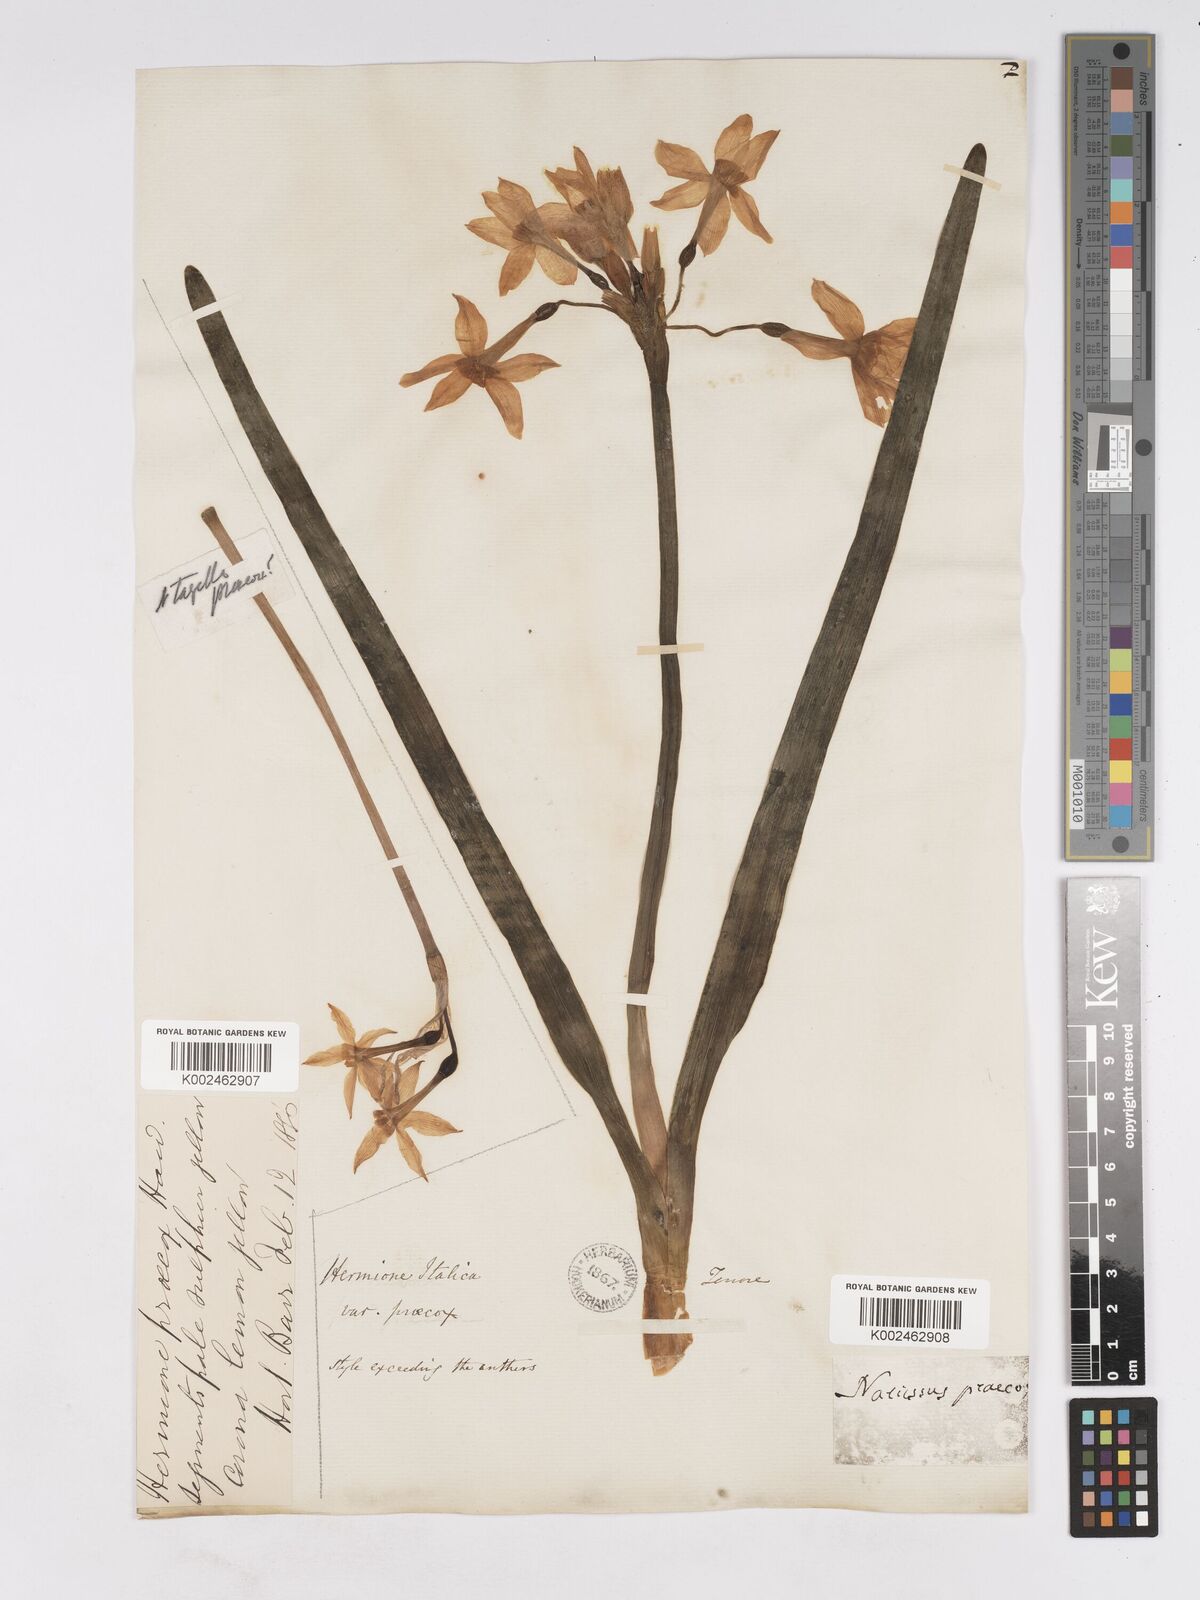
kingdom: Plantae
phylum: Tracheophyta
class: Liliopsida
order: Asparagales
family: Amaryllidaceae
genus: Narcissus
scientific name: Narcissus tazetta
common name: Bunch-flowered daffodil
